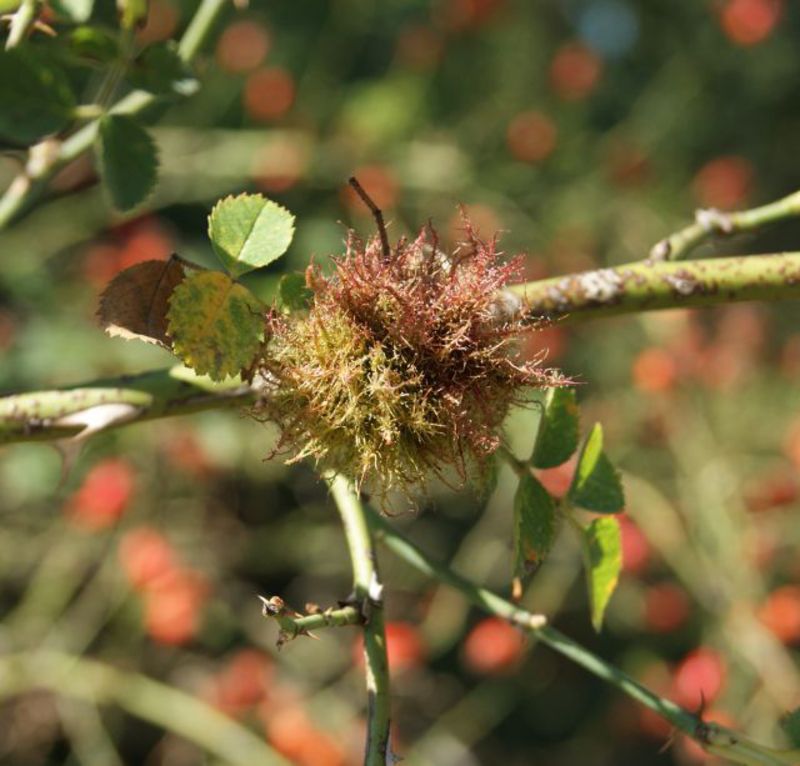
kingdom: Animalia
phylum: Arthropoda
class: Insecta
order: Hymenoptera
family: Cynipidae
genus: Diplolepis
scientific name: Diplolepis rosae
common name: Bedeguar gall
